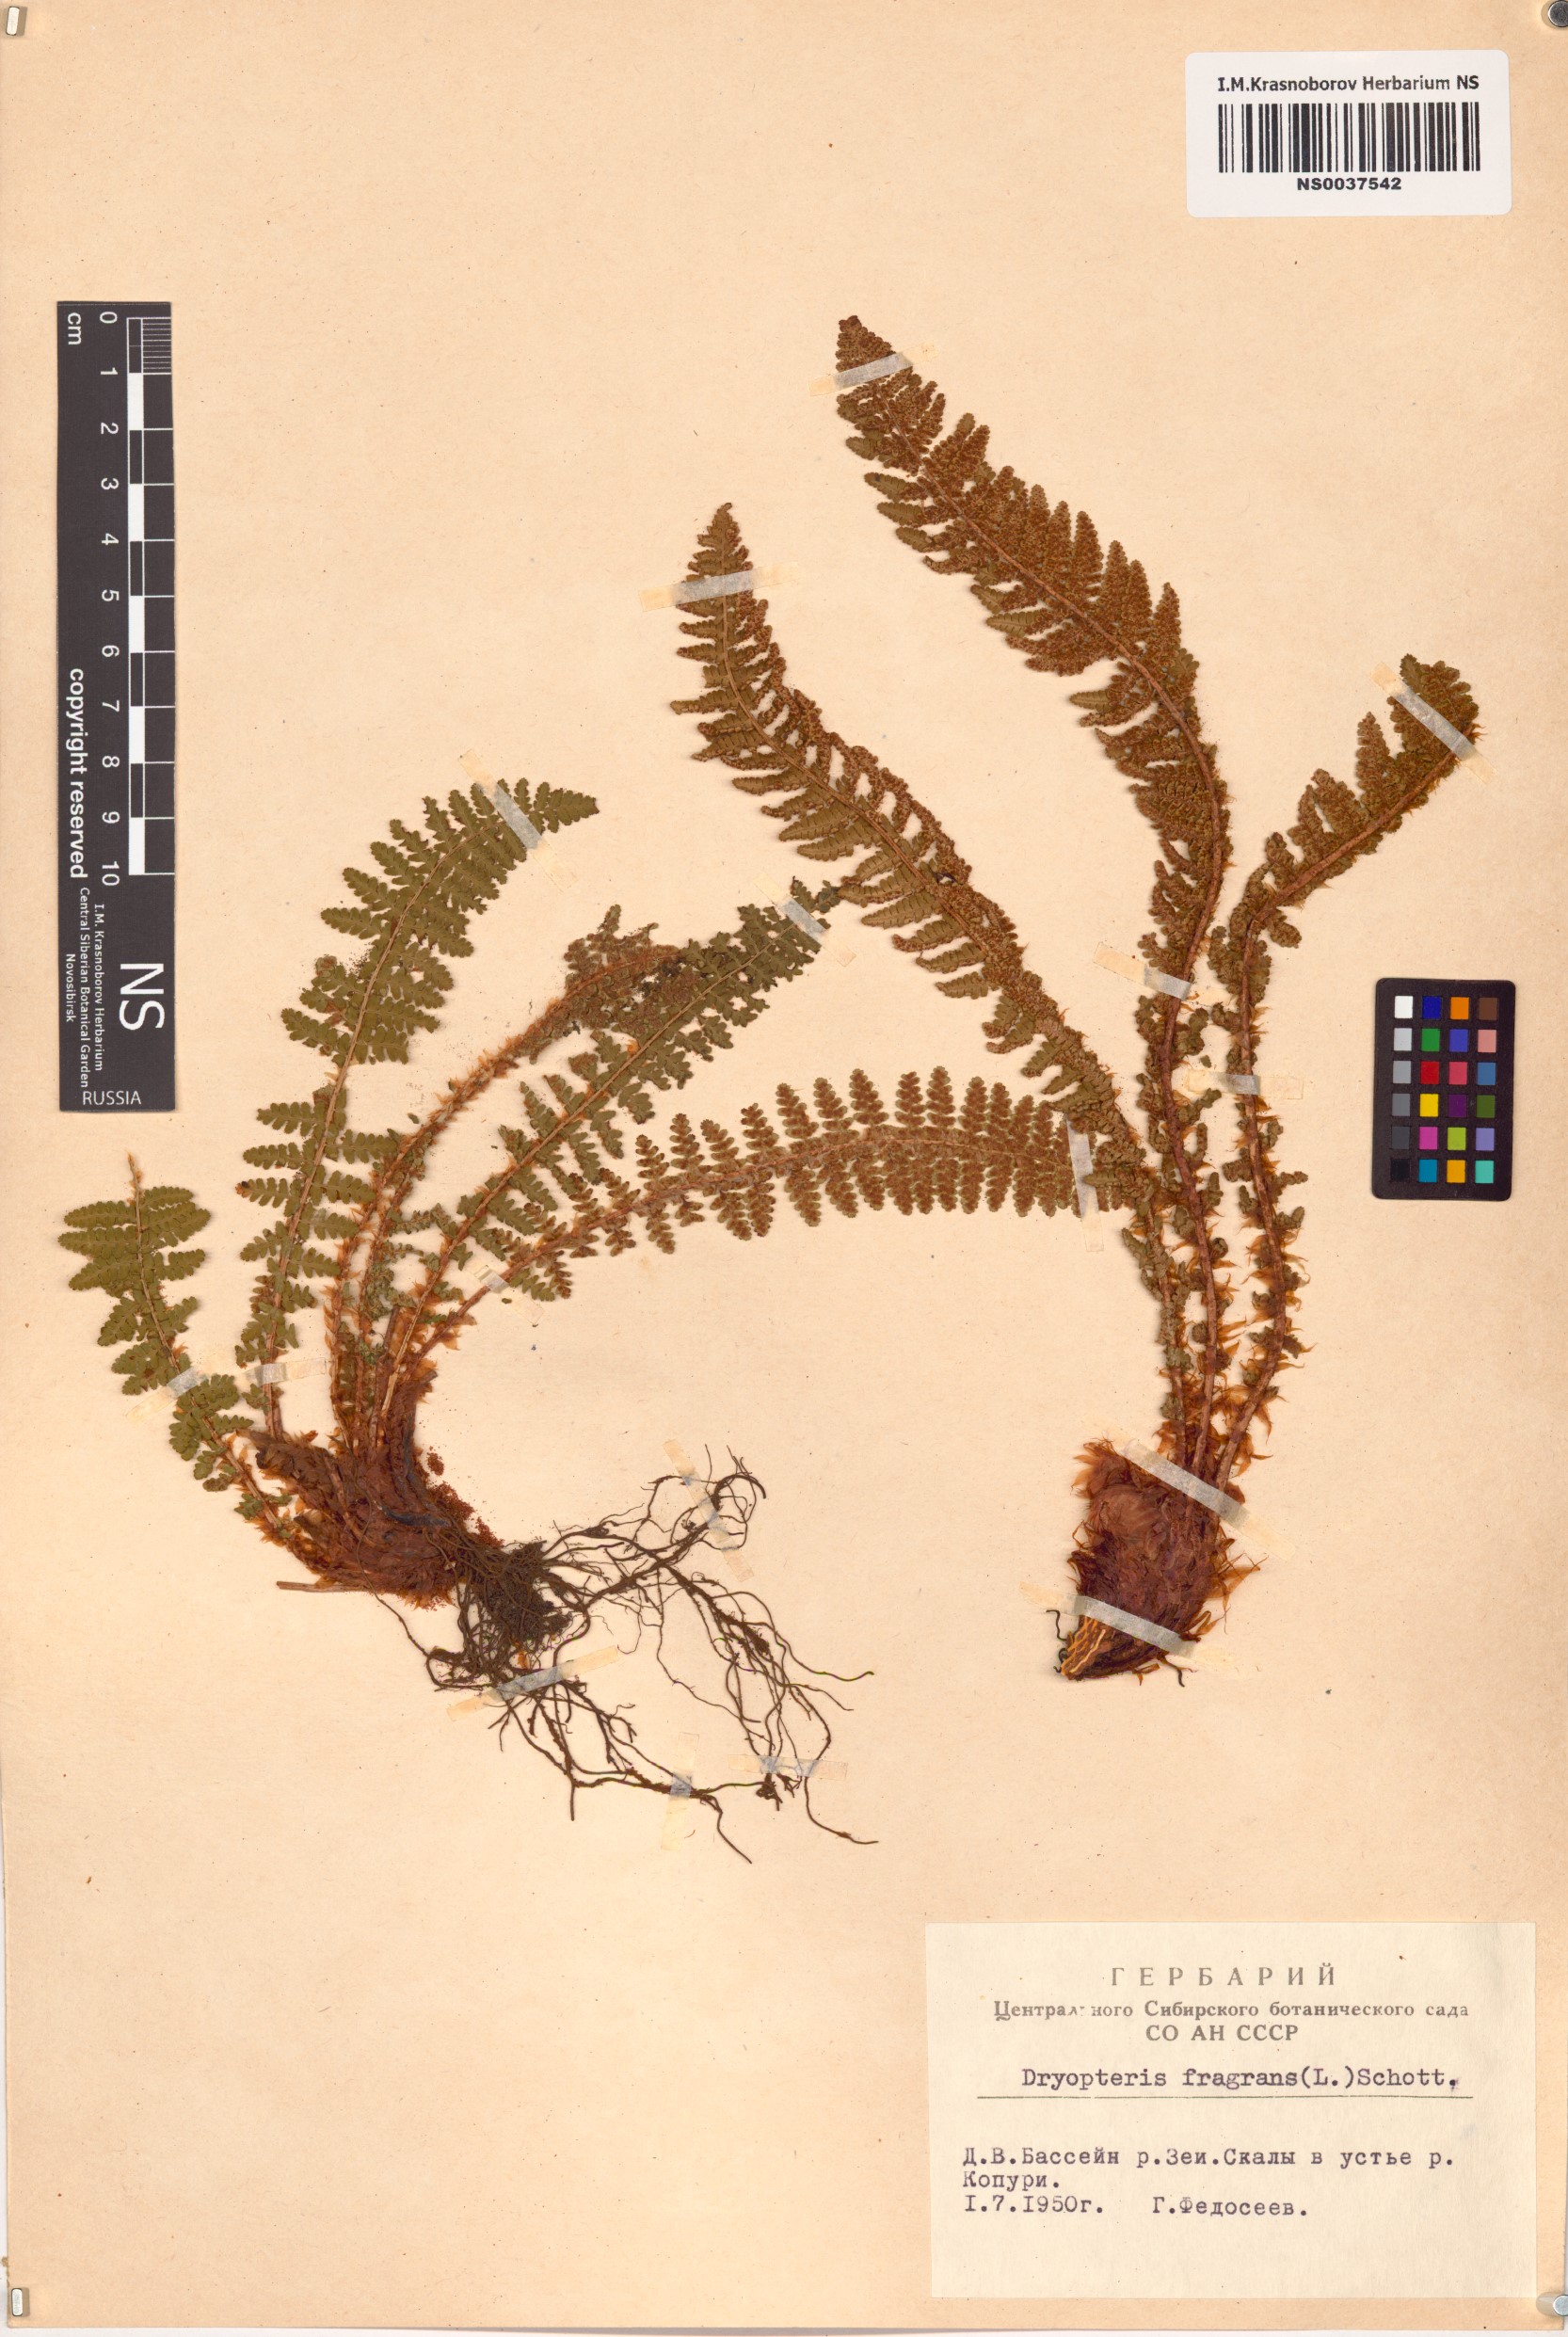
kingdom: Plantae
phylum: Tracheophyta
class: Polypodiopsida
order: Polypodiales
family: Dryopteridaceae
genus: Dryopteris
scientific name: Dryopteris fragrans
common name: Fragrant wood fern
